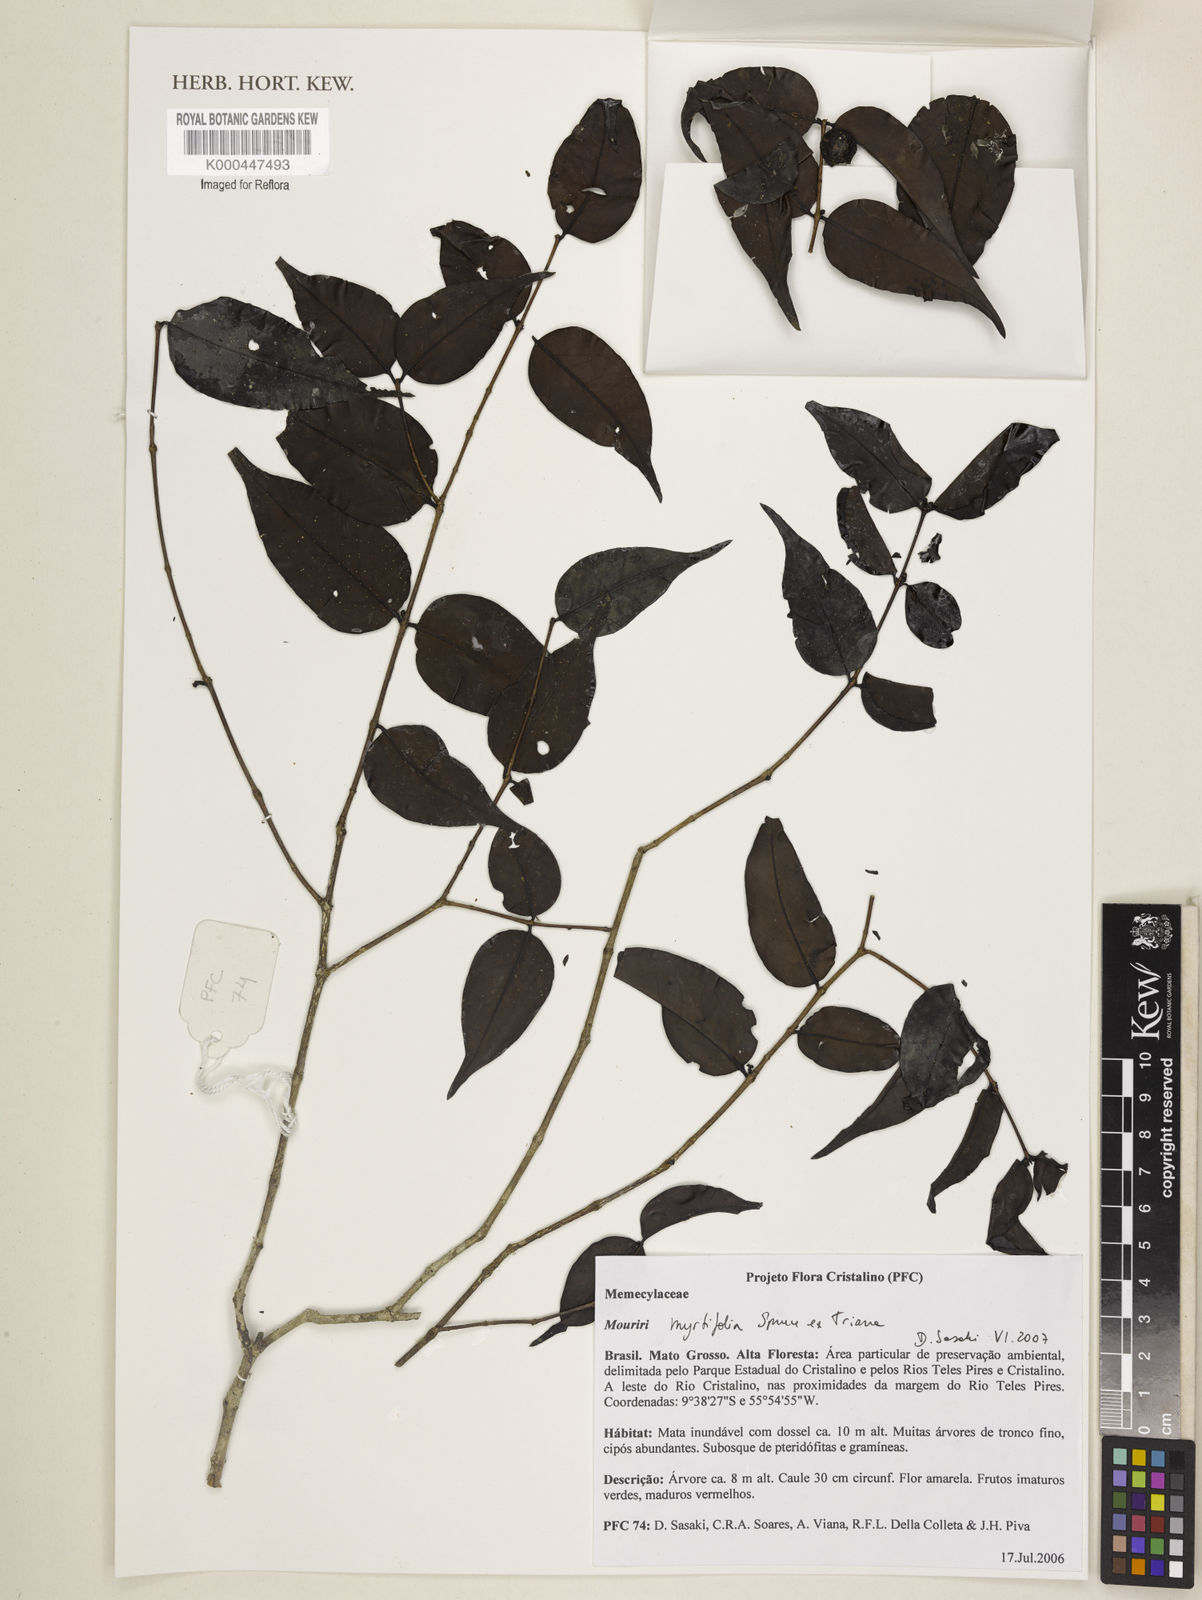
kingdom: Plantae
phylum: Tracheophyta
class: Magnoliopsida
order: Myrtales
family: Melastomataceae
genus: Mouriri
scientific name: Mouriri myrtifolia
